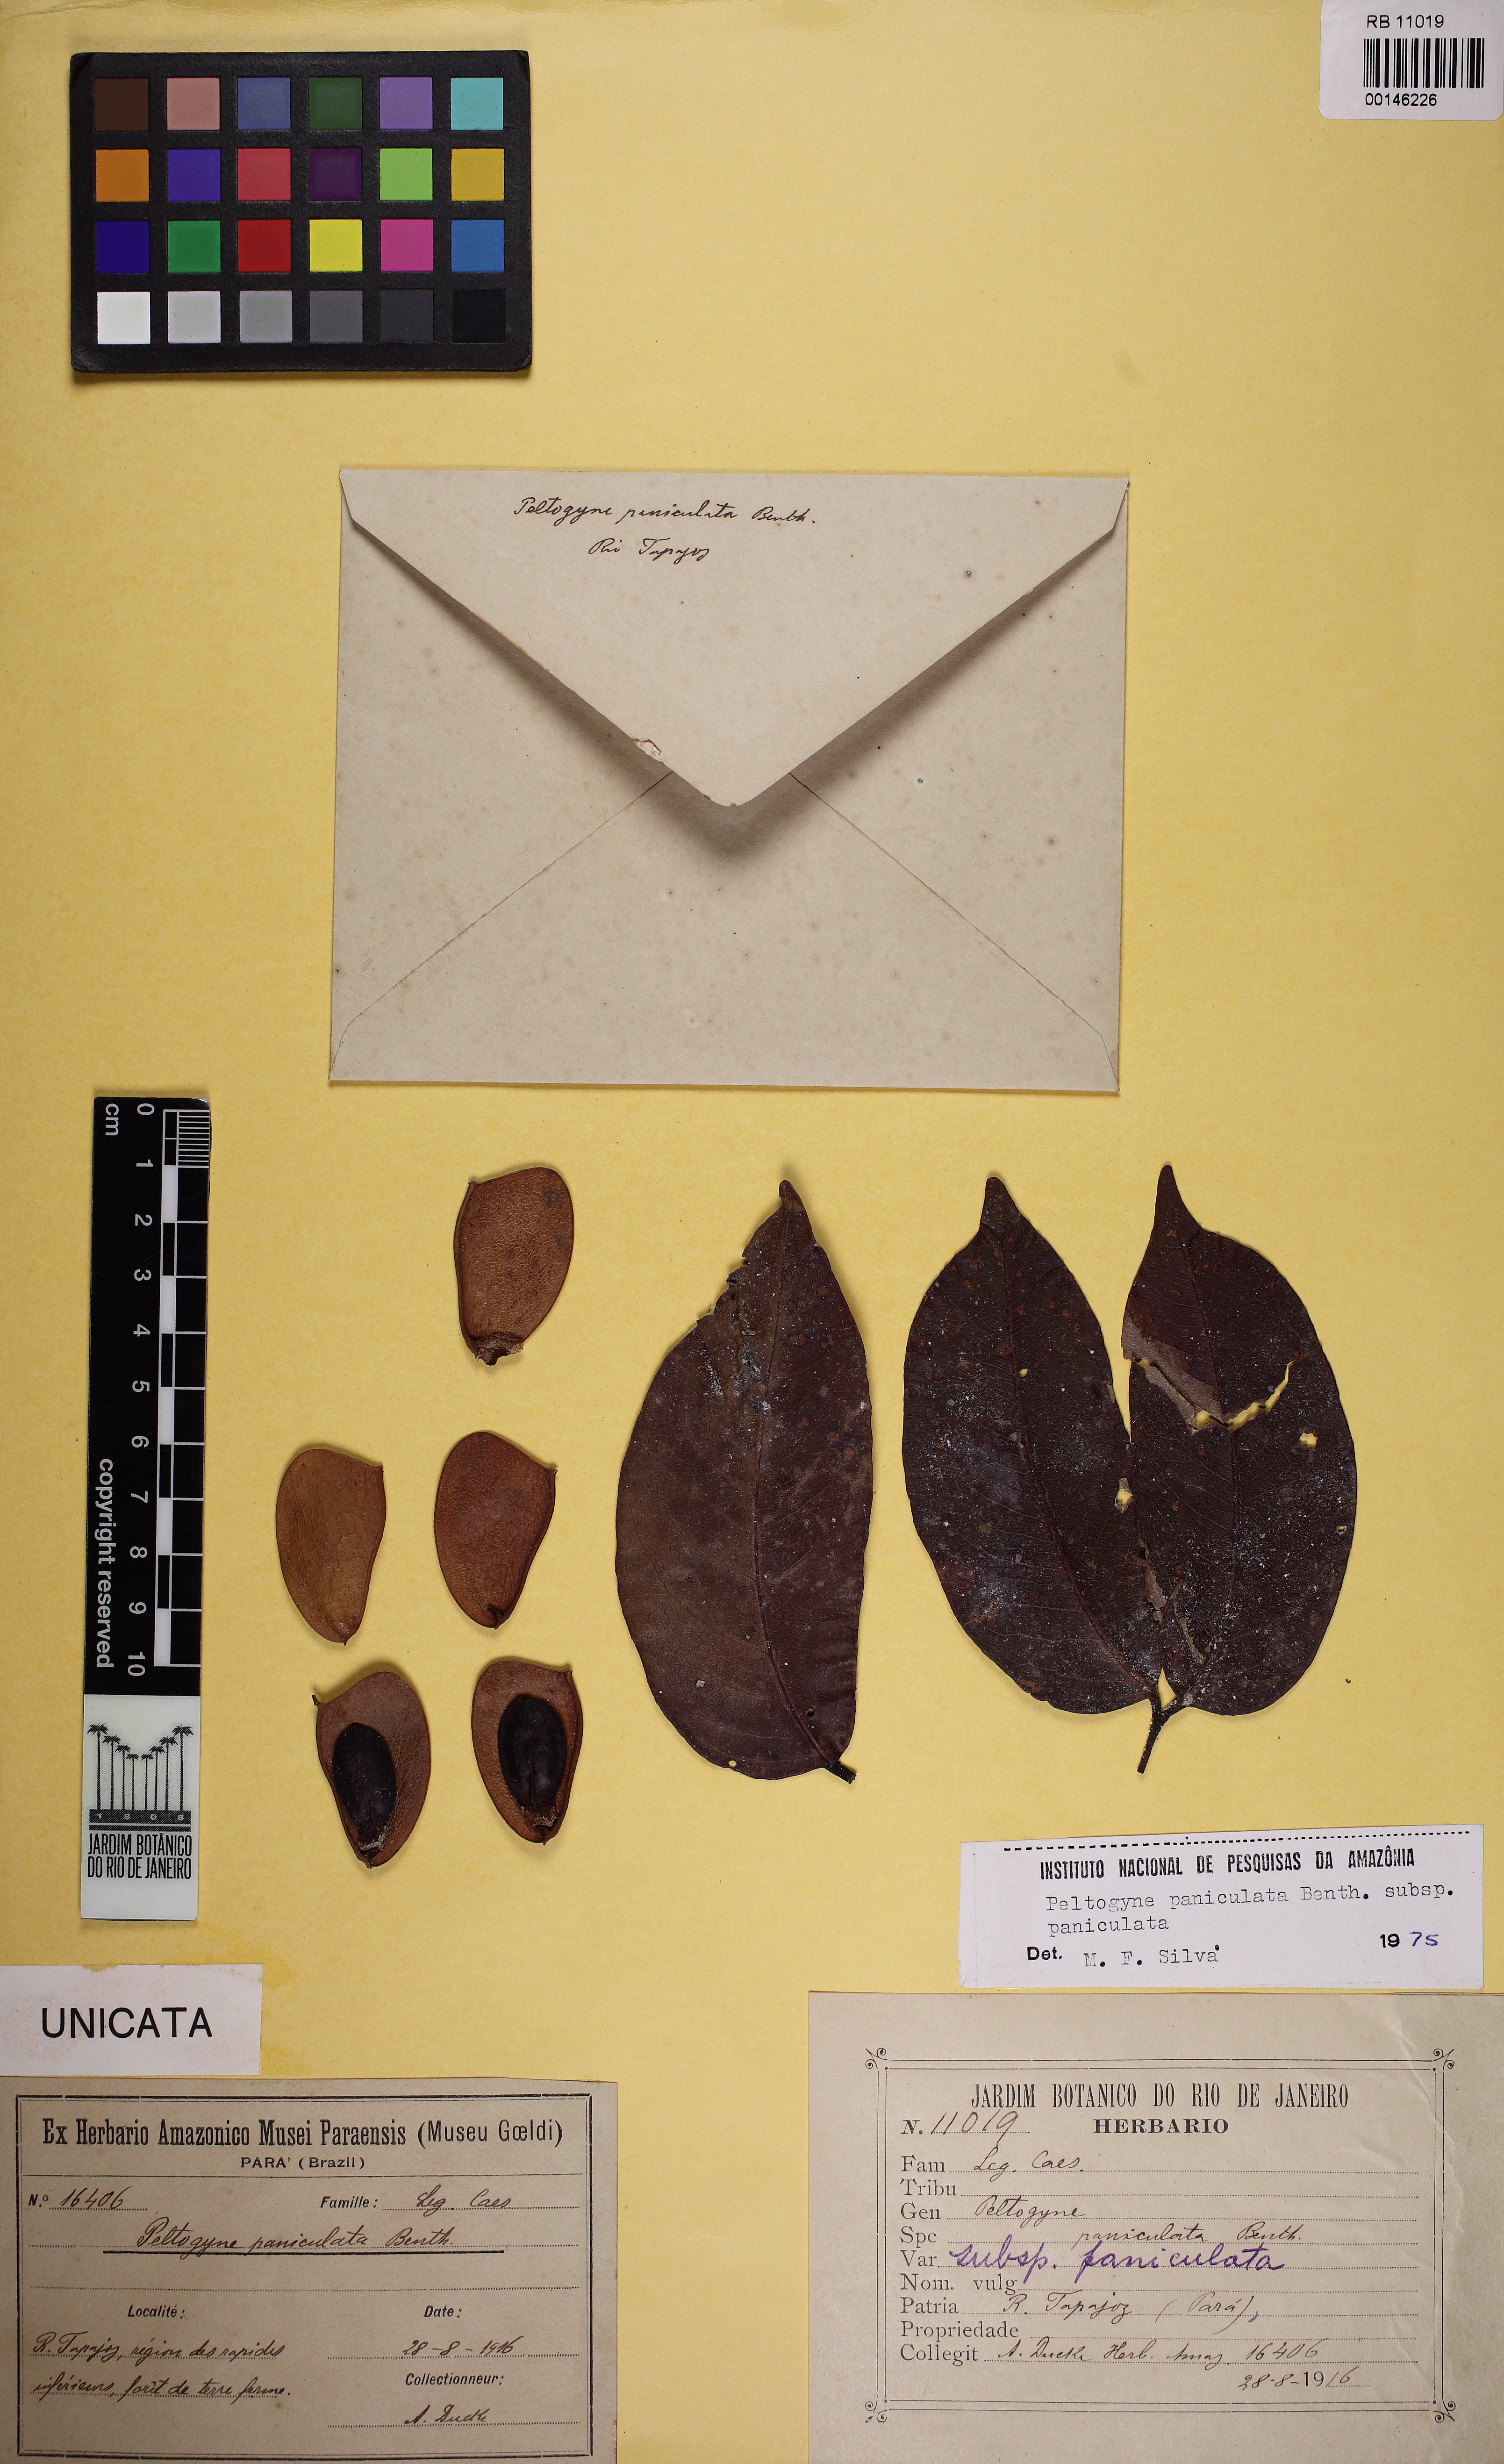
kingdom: Plantae
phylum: Tracheophyta
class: Magnoliopsida
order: Fabales
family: Fabaceae
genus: Peltogyne
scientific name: Peltogyne paniculata
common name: Purpleheart
